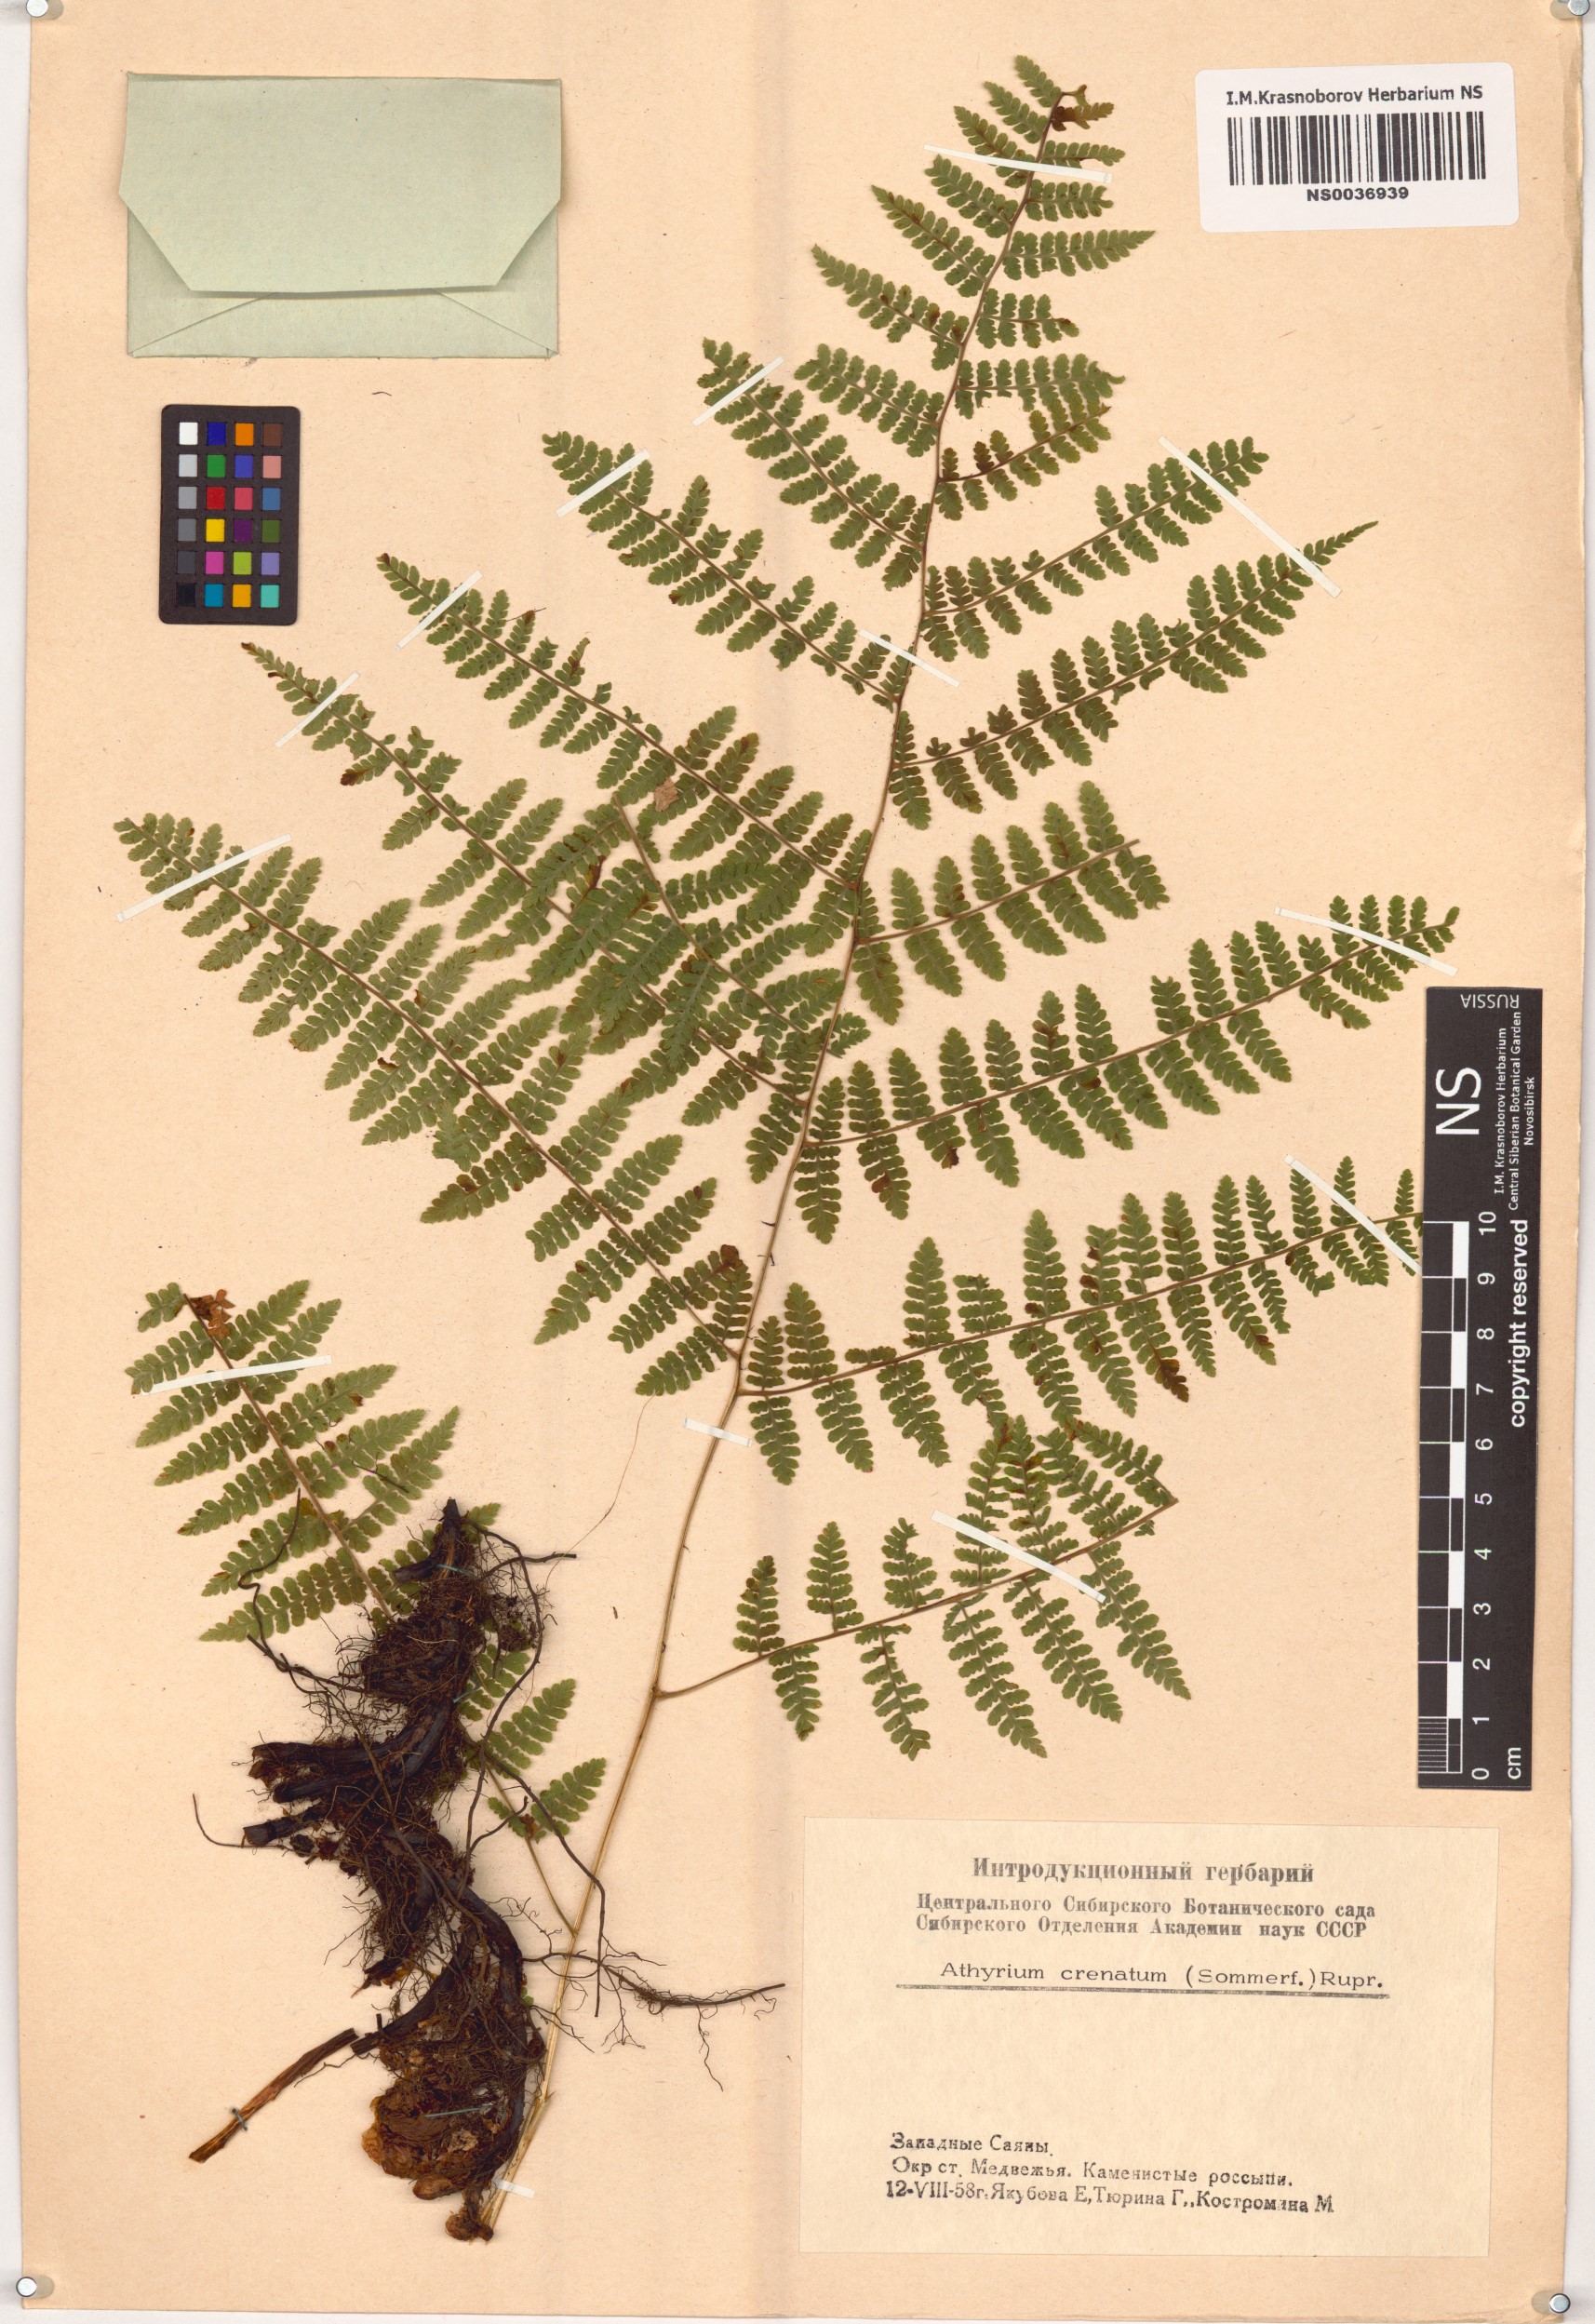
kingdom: Plantae
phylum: Tracheophyta
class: Polypodiopsida
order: Polypodiales
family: Athyriaceae
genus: Diplazium
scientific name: Diplazium sibiricum
